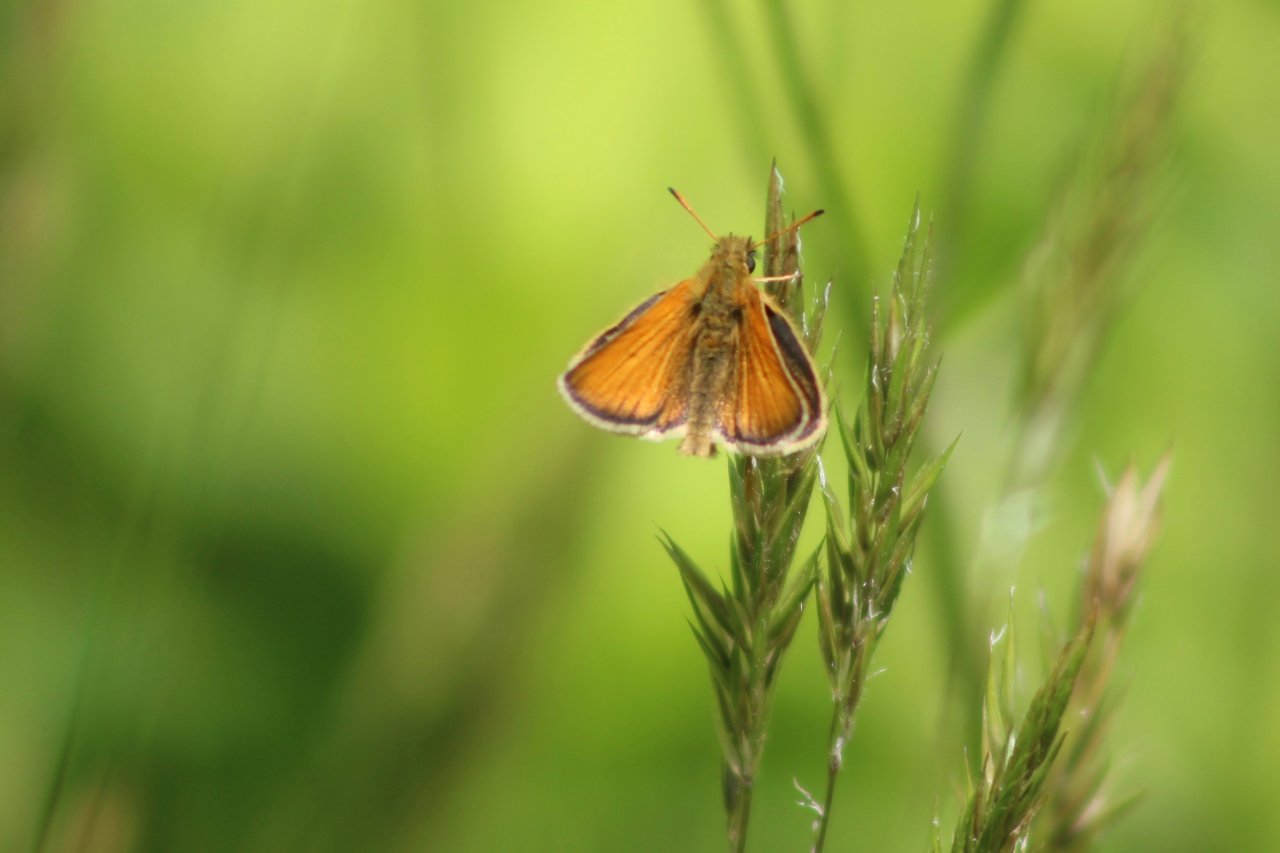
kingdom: Animalia
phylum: Arthropoda
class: Insecta
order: Lepidoptera
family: Hesperiidae
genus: Thymelicus
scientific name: Thymelicus lineola
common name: European Skipper
